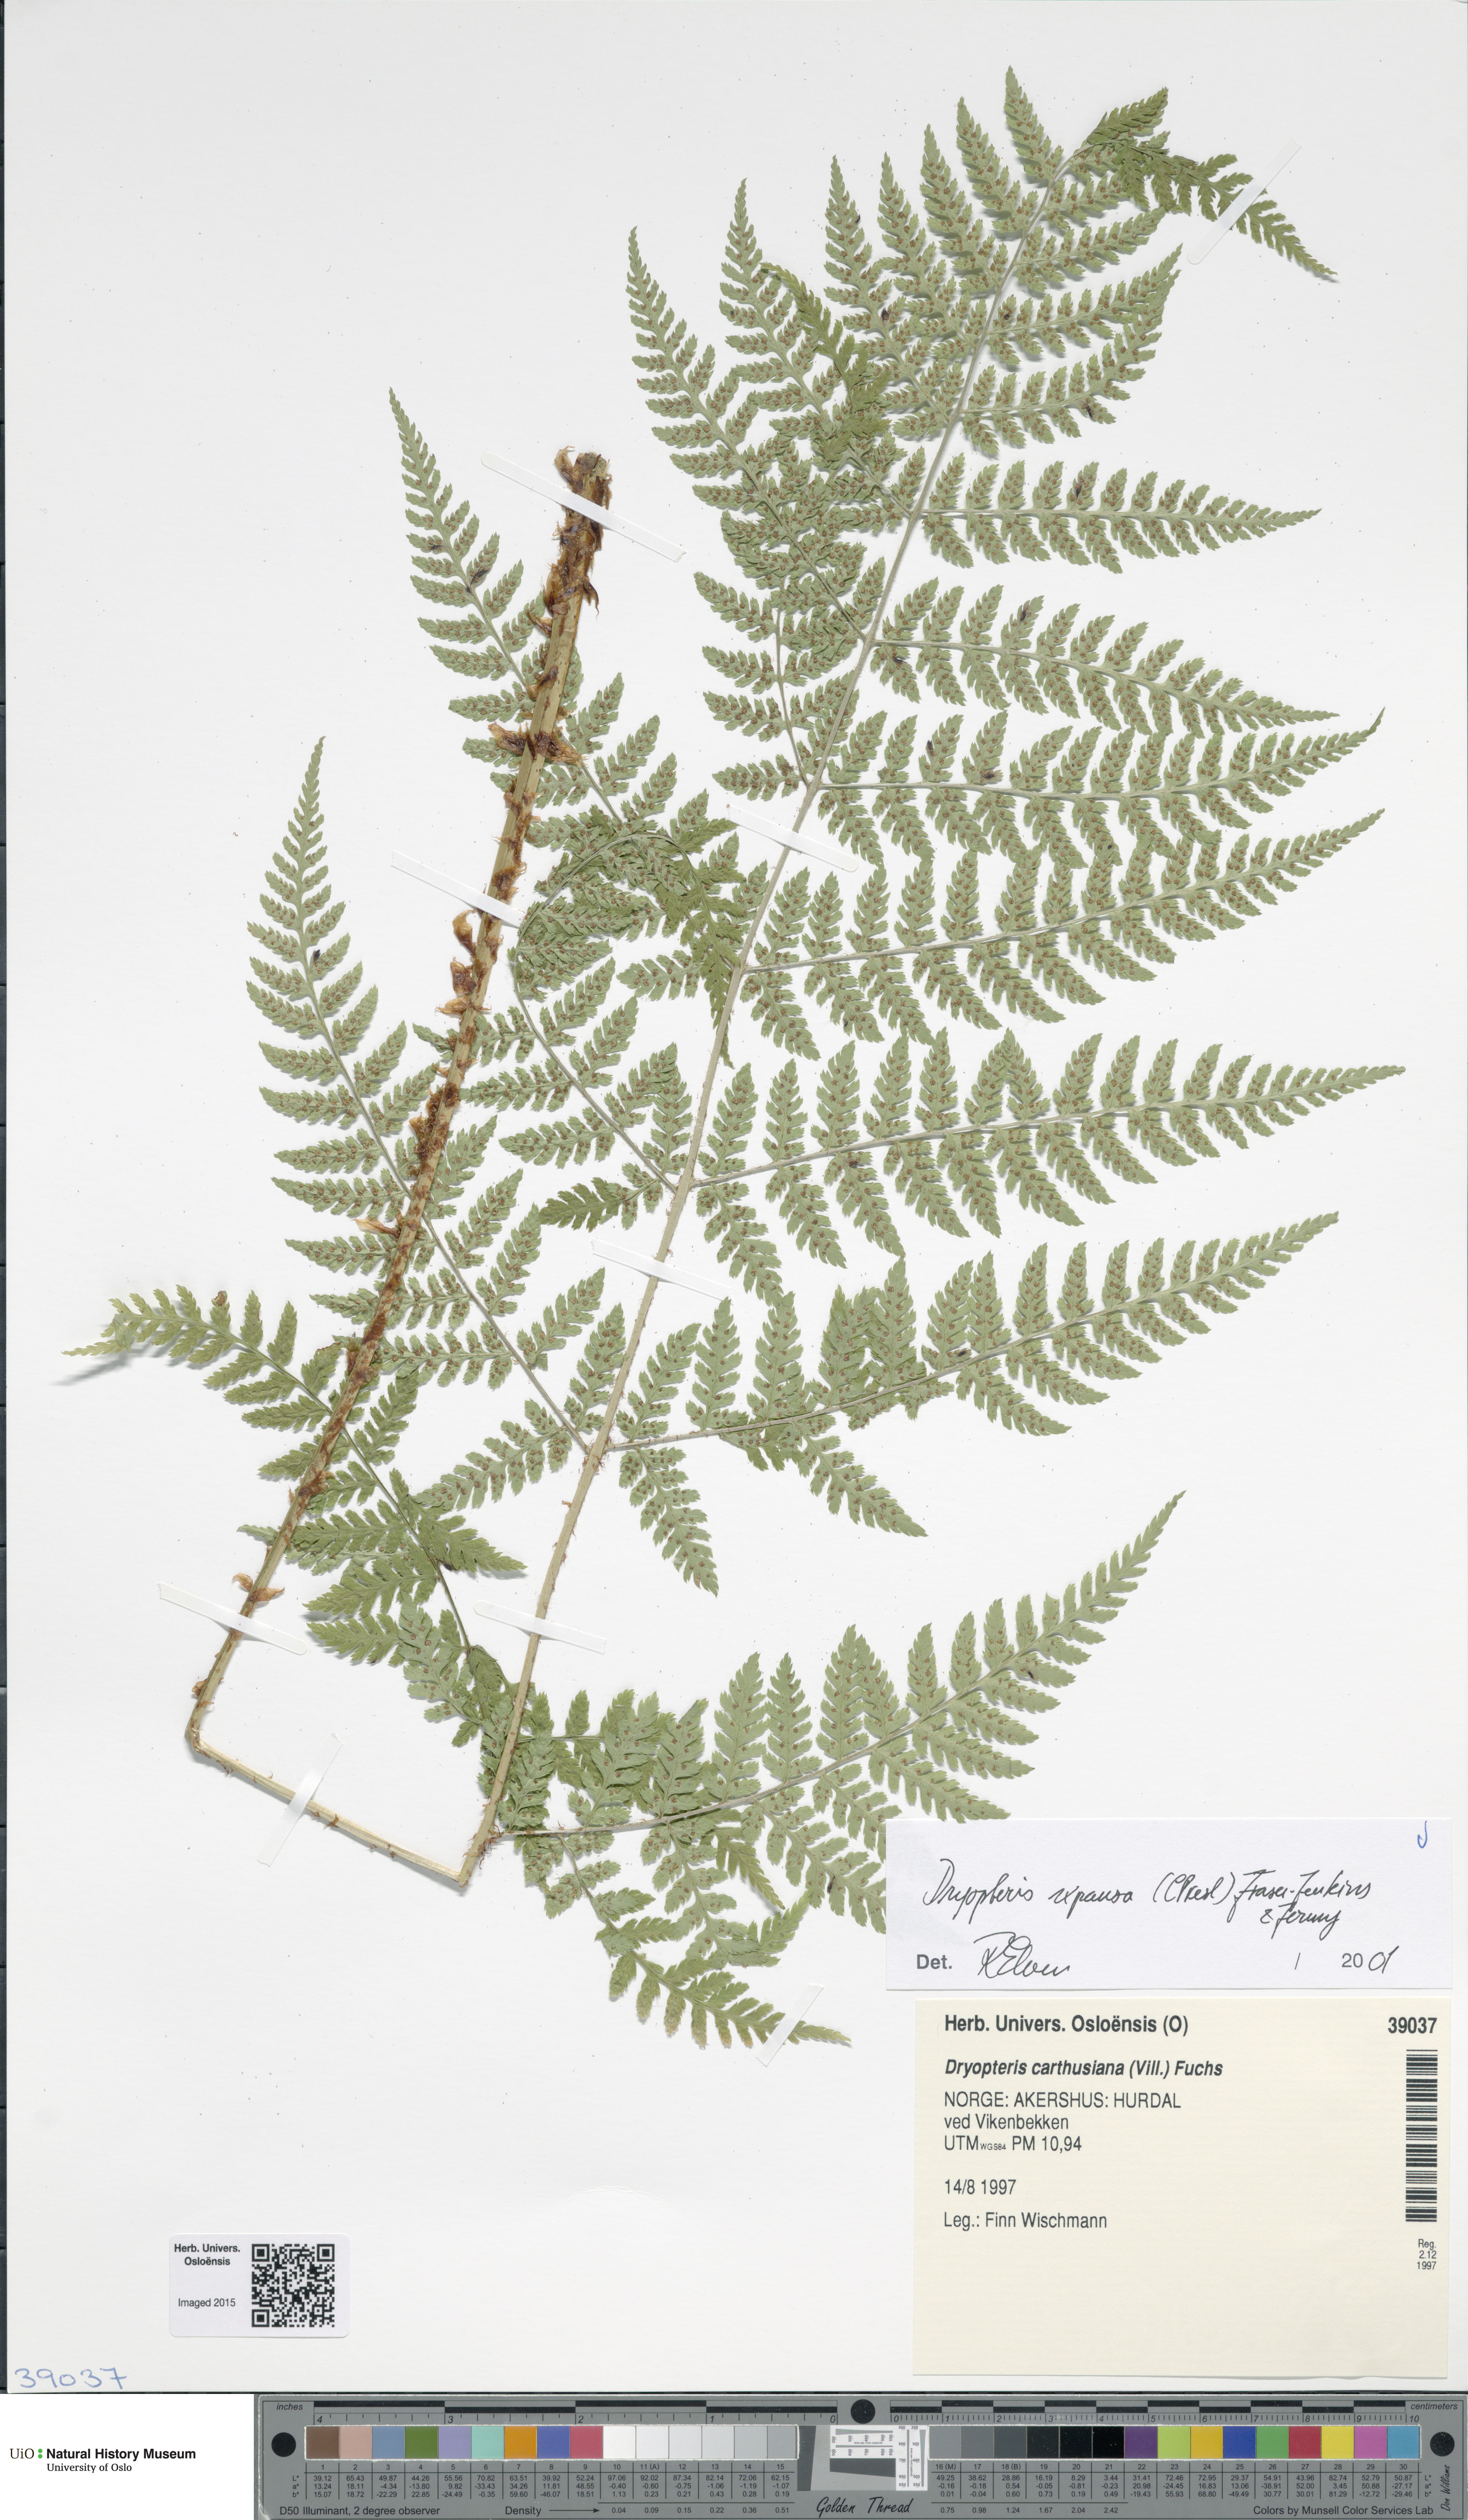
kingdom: Plantae
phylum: Tracheophyta
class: Polypodiopsida
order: Polypodiales
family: Dryopteridaceae
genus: Dryopteris
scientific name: Dryopteris expansa
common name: Northern buckler fern
